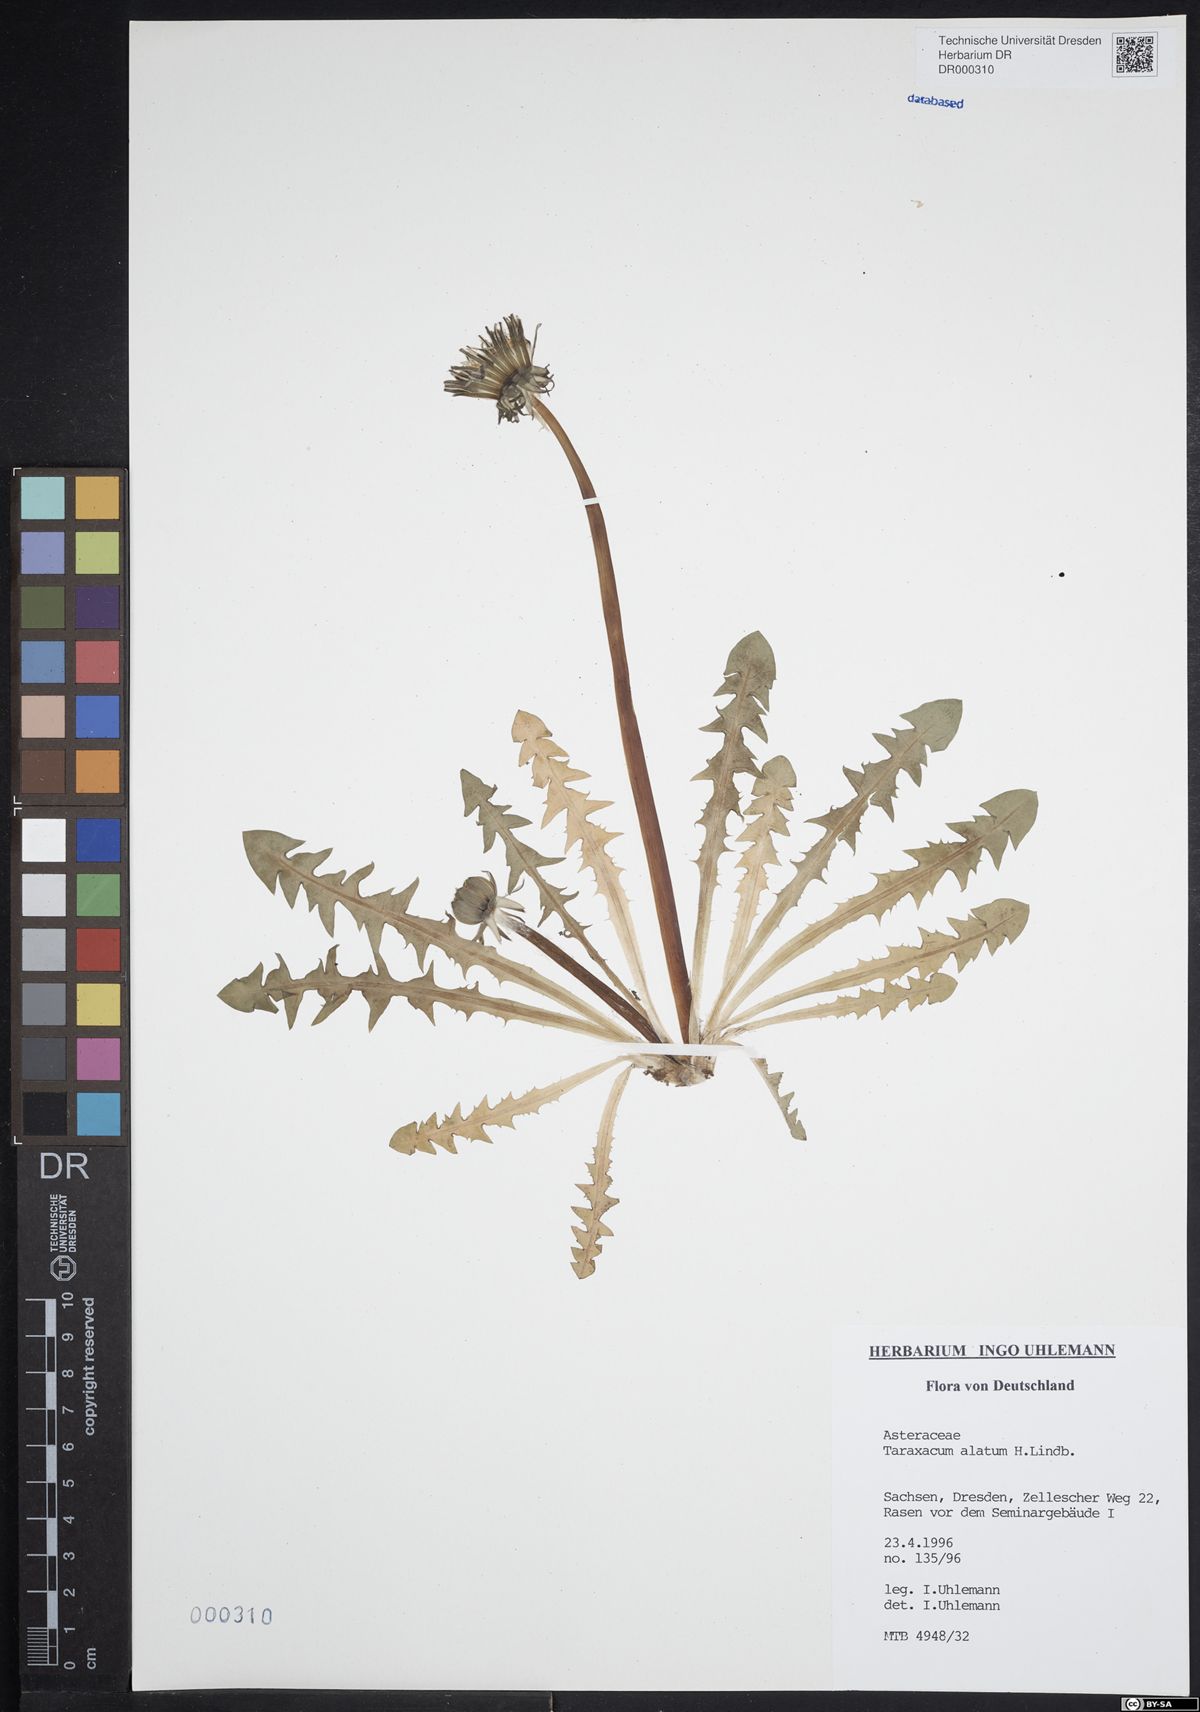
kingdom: Plantae
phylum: Tracheophyta
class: Magnoliopsida
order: Asterales
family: Asteraceae
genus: Taraxacum
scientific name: Taraxacum alatum
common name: Green dandelion
